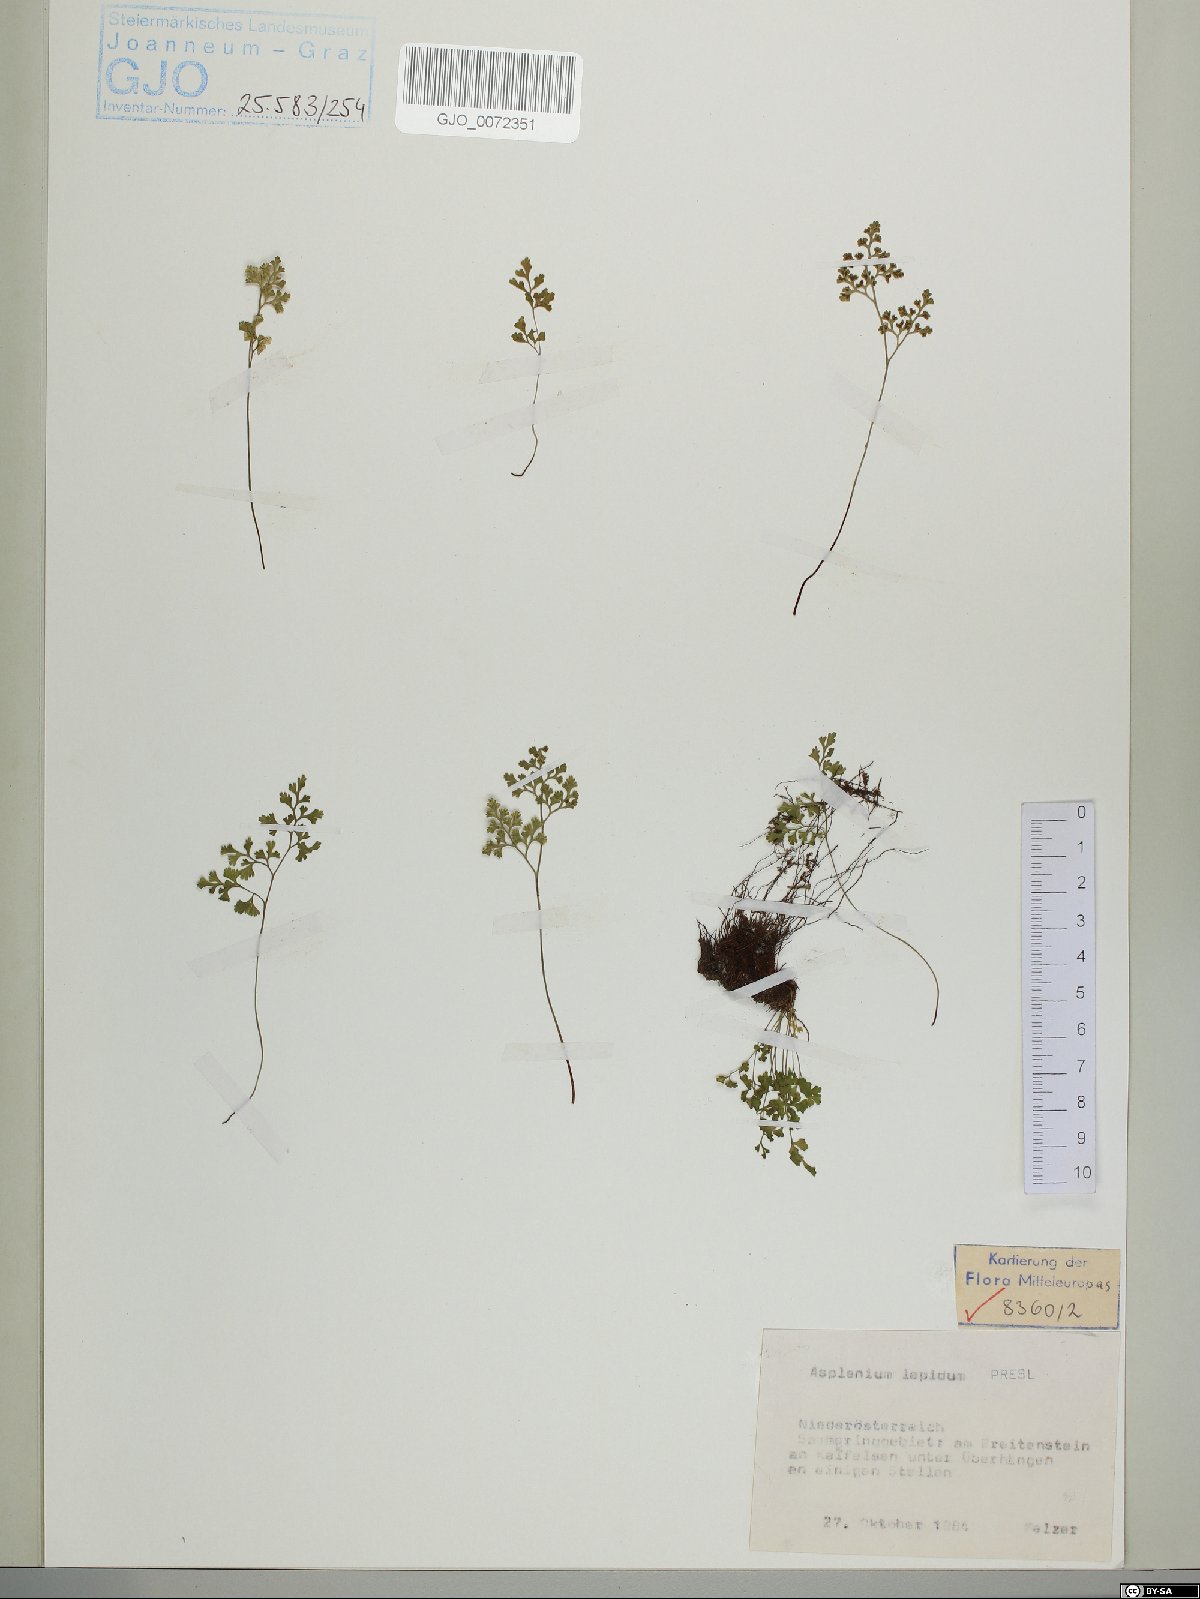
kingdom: Plantae
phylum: Tracheophyta
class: Polypodiopsida
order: Polypodiales
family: Aspleniaceae
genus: Asplenium
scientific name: Asplenium lepidum
